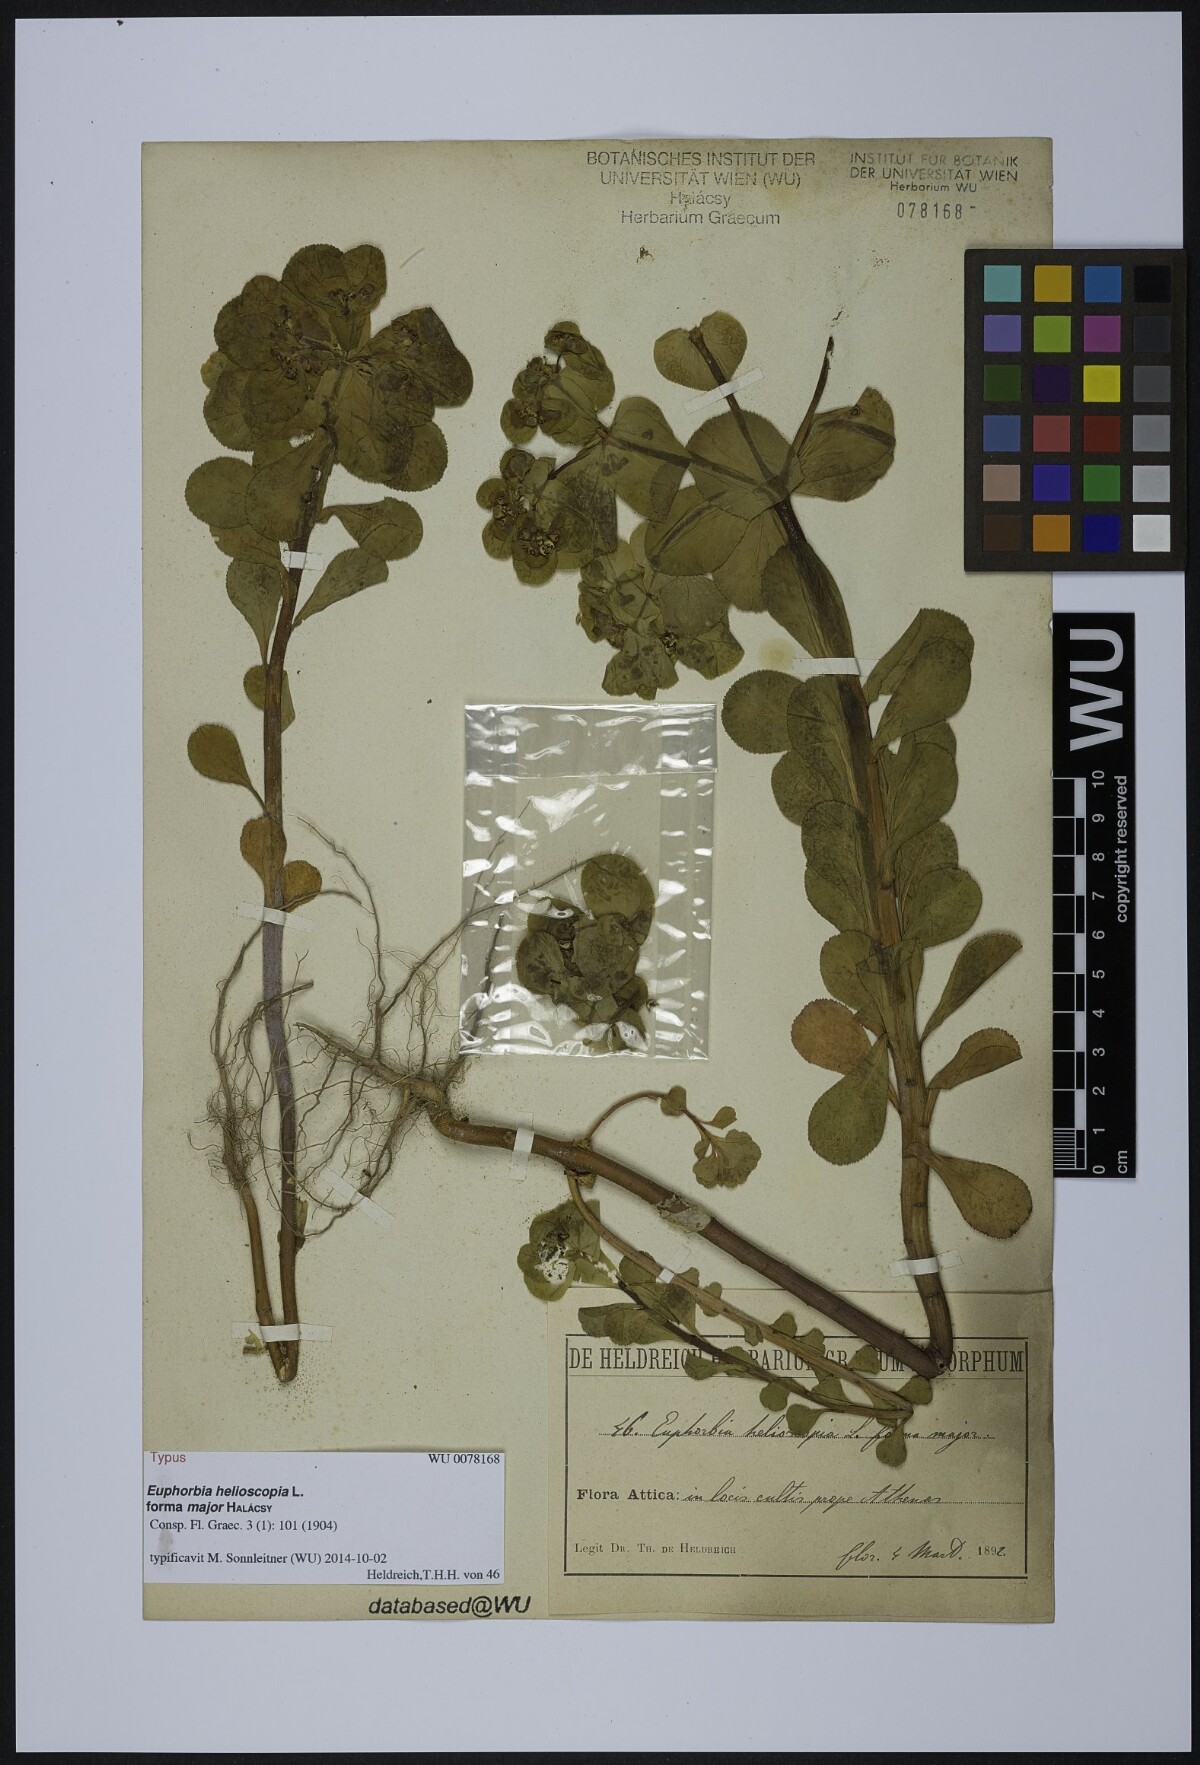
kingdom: Plantae
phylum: Tracheophyta
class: Magnoliopsida
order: Malpighiales
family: Euphorbiaceae
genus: Euphorbia
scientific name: Euphorbia helioscopia
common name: Sun spurge
